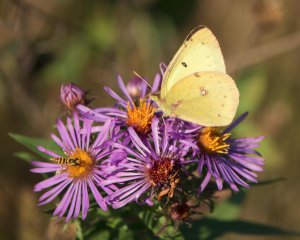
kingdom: Animalia
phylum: Arthropoda
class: Insecta
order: Lepidoptera
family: Pieridae
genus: Colias
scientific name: Colias philodice
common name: Clouded Sulphur
